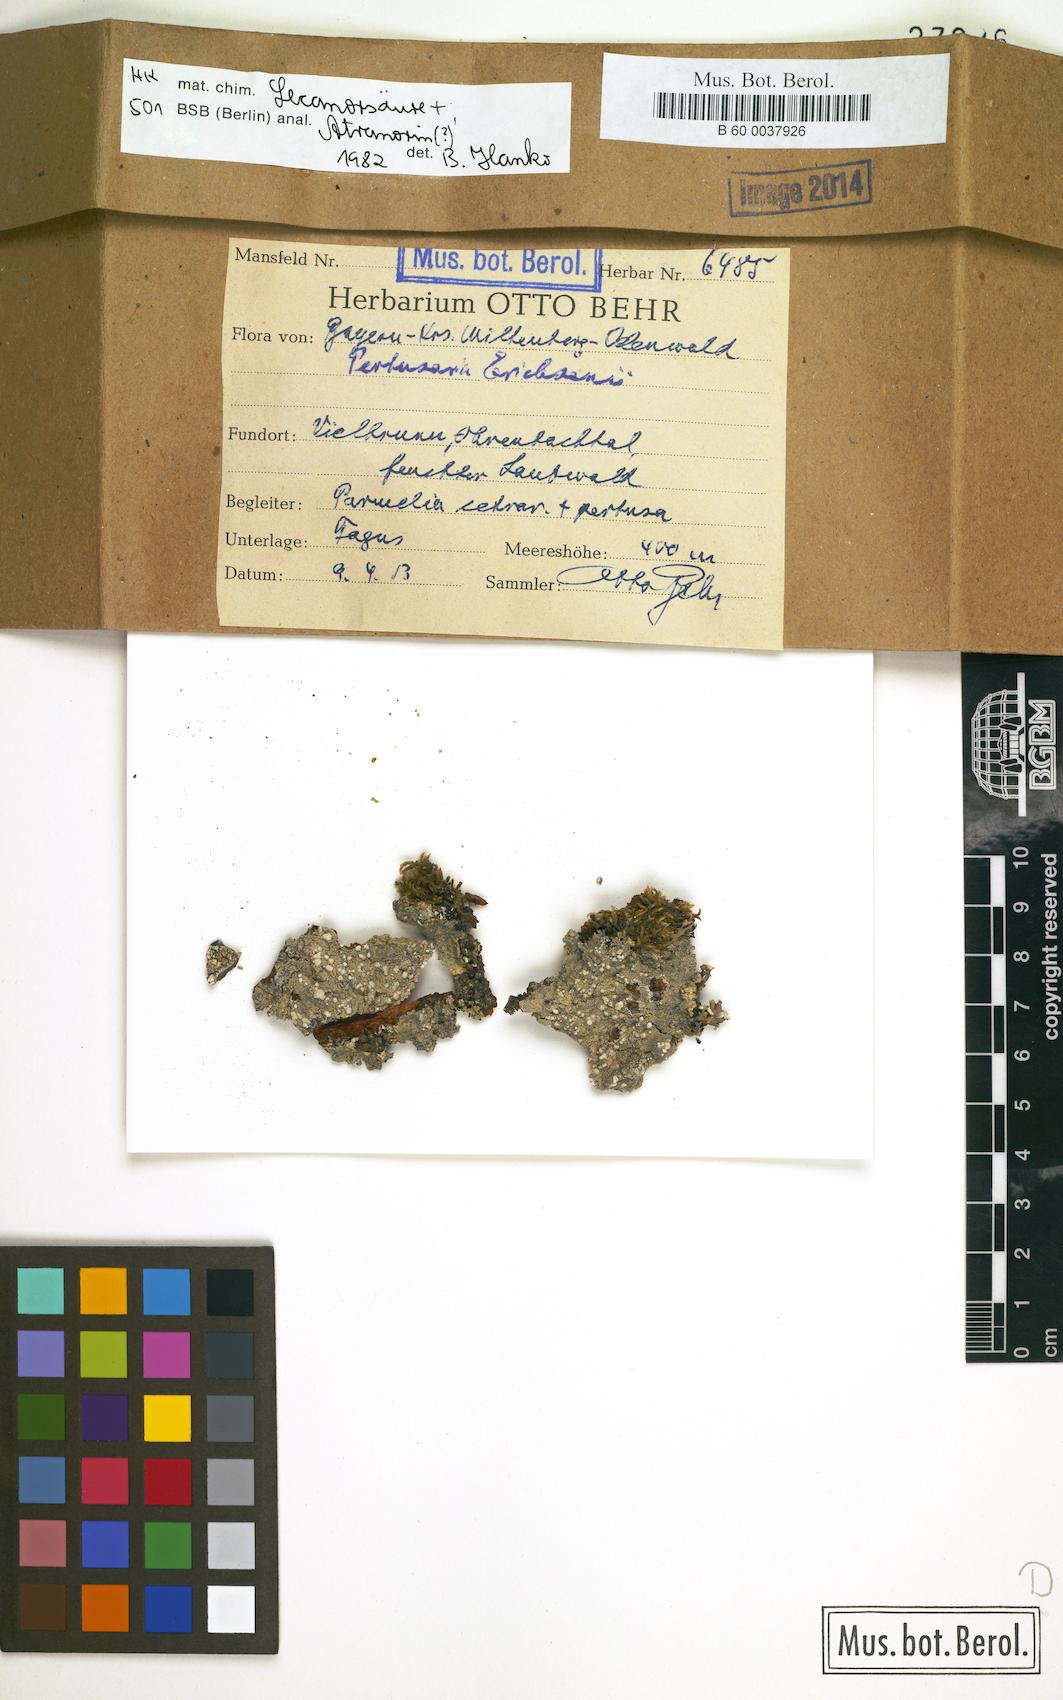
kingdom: Fungi
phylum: Ascomycota
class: Lecanoromycetes
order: Pertusariales
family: Pertusariaceae
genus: Pertusaria
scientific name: Pertusaria
